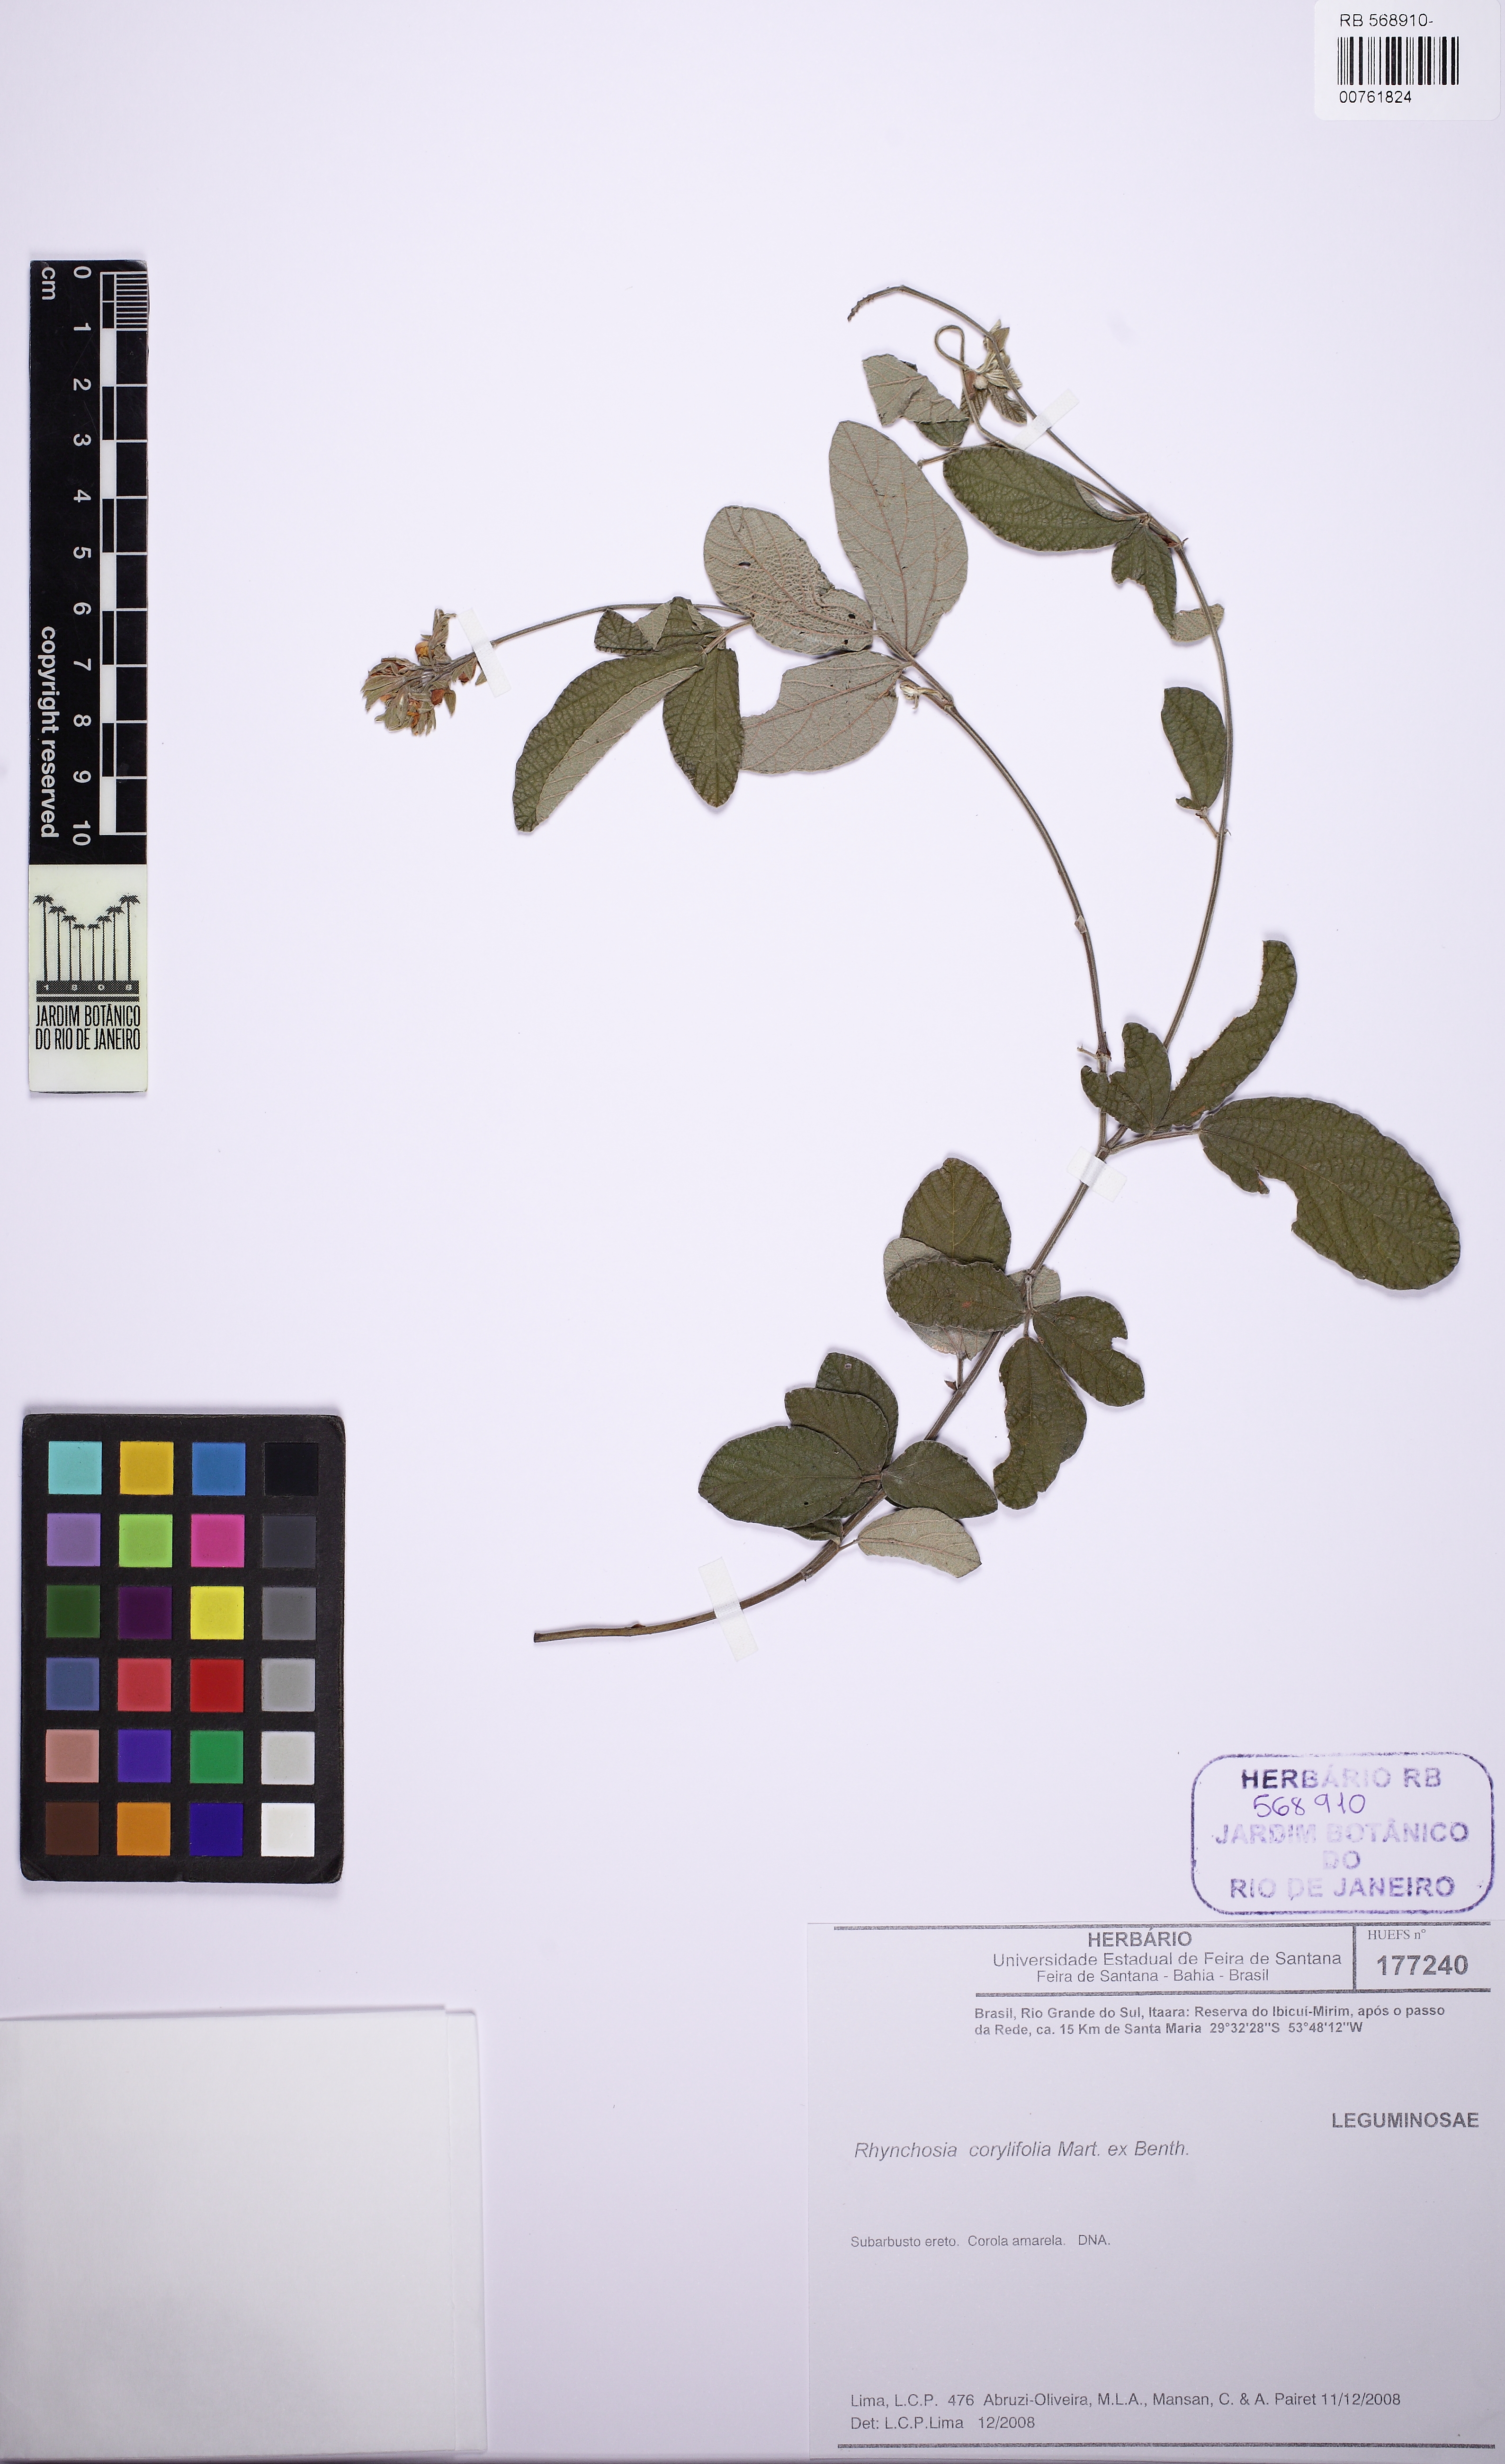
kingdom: Plantae
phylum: Tracheophyta
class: Magnoliopsida
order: Fabales
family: Fabaceae
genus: Rhynchosia
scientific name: Rhynchosia corylifolia
